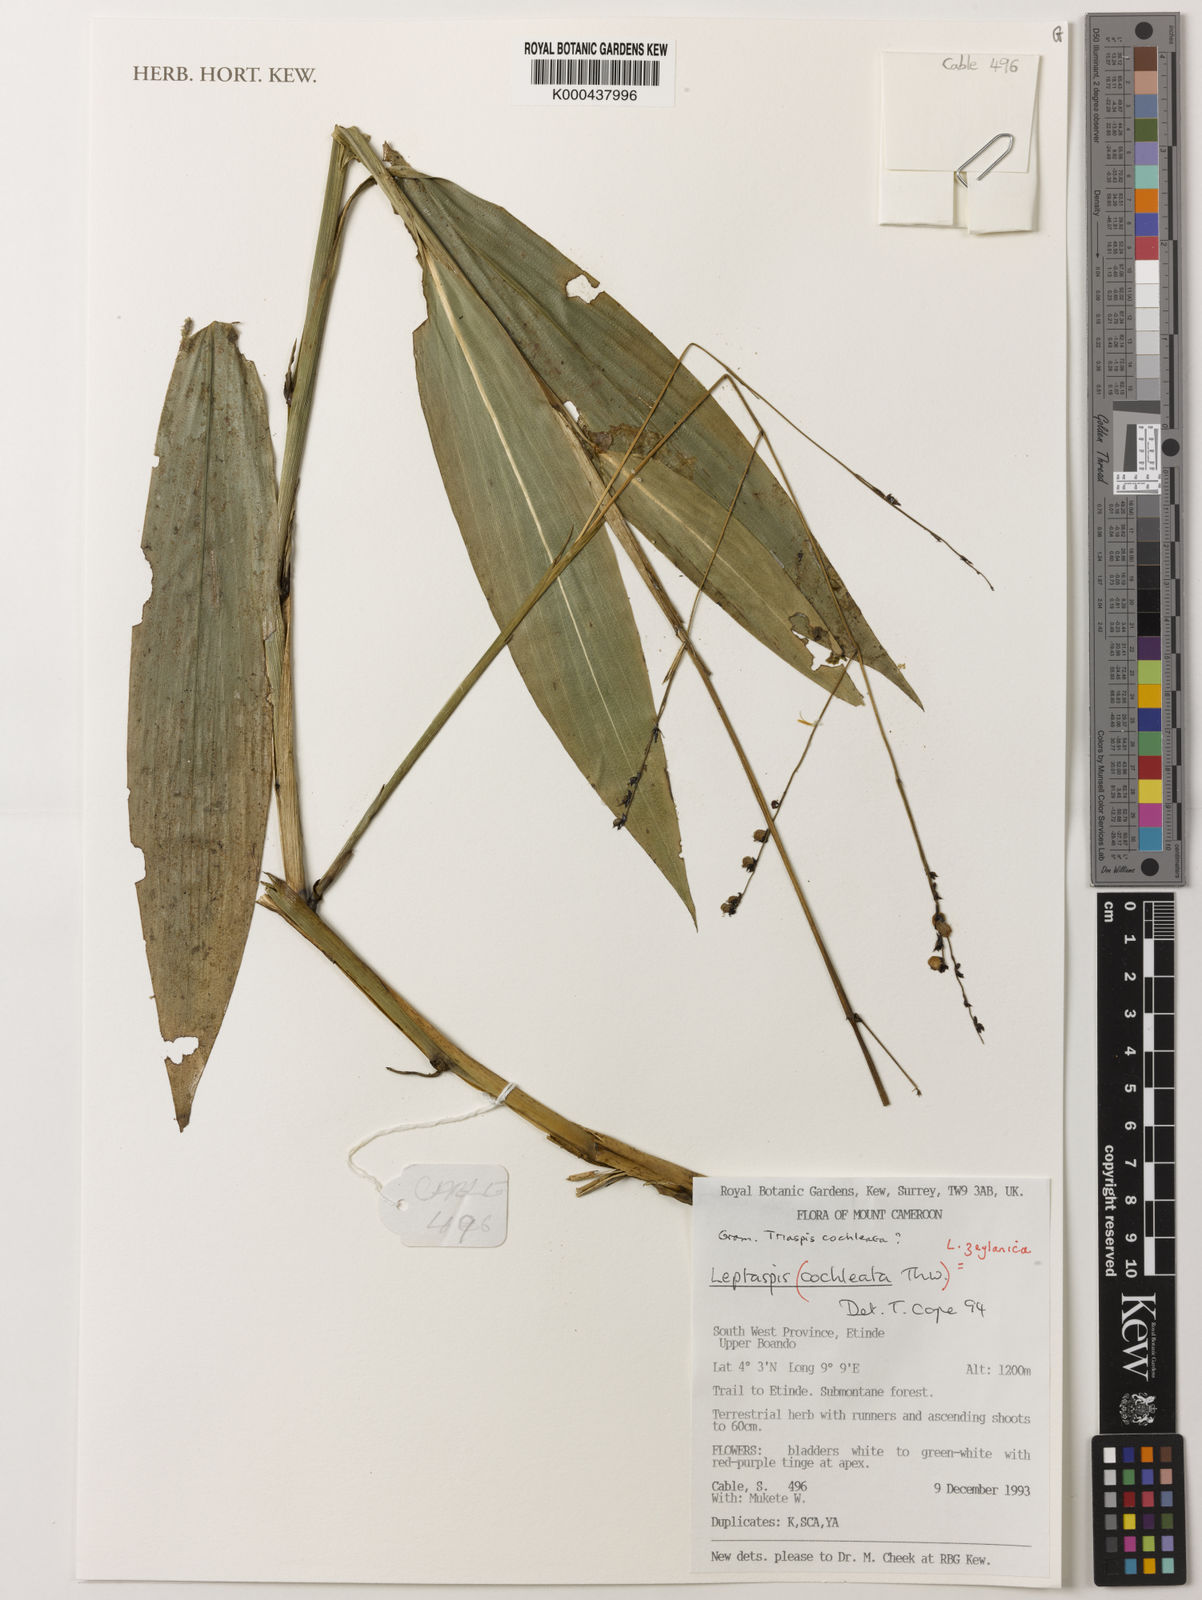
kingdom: Plantae
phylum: Tracheophyta
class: Liliopsida
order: Poales
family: Poaceae
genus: Leptaspis
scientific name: Leptaspis zeylanica
